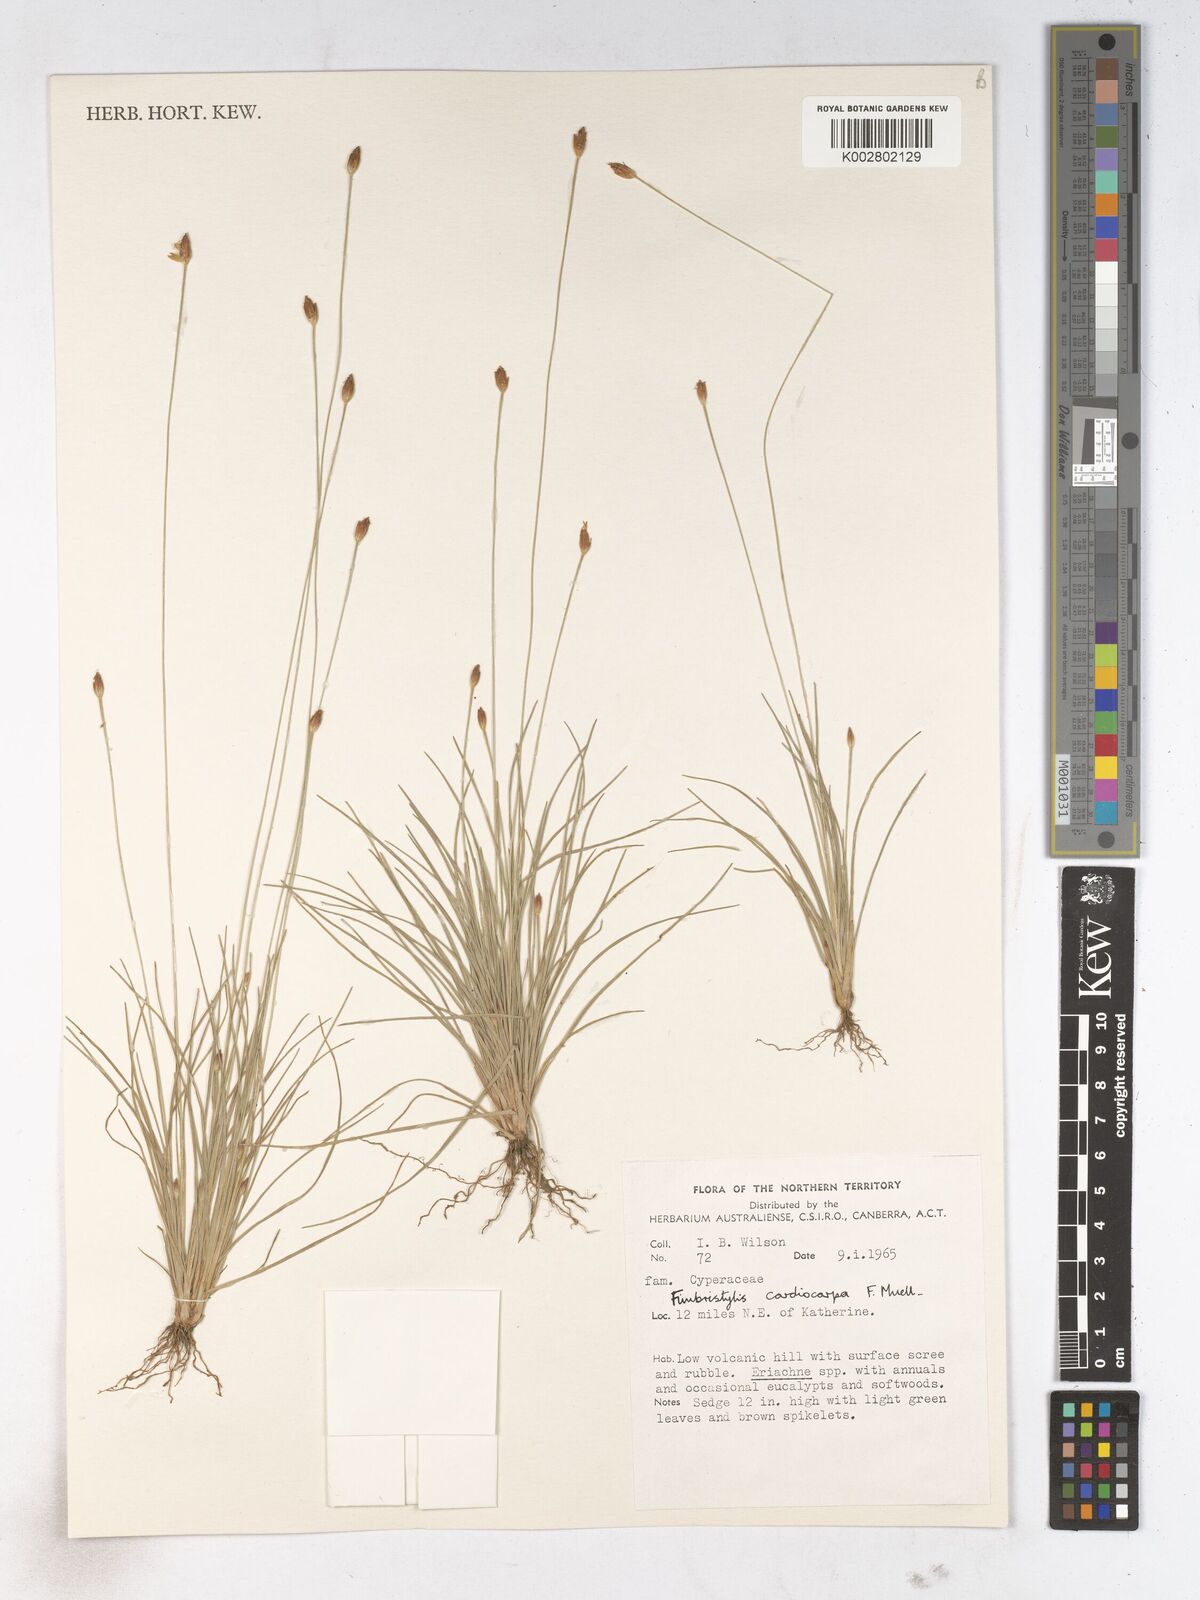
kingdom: Plantae
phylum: Tracheophyta
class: Liliopsida
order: Poales
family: Cyperaceae
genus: Fimbristylis
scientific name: Fimbristylis cardiocarpa
